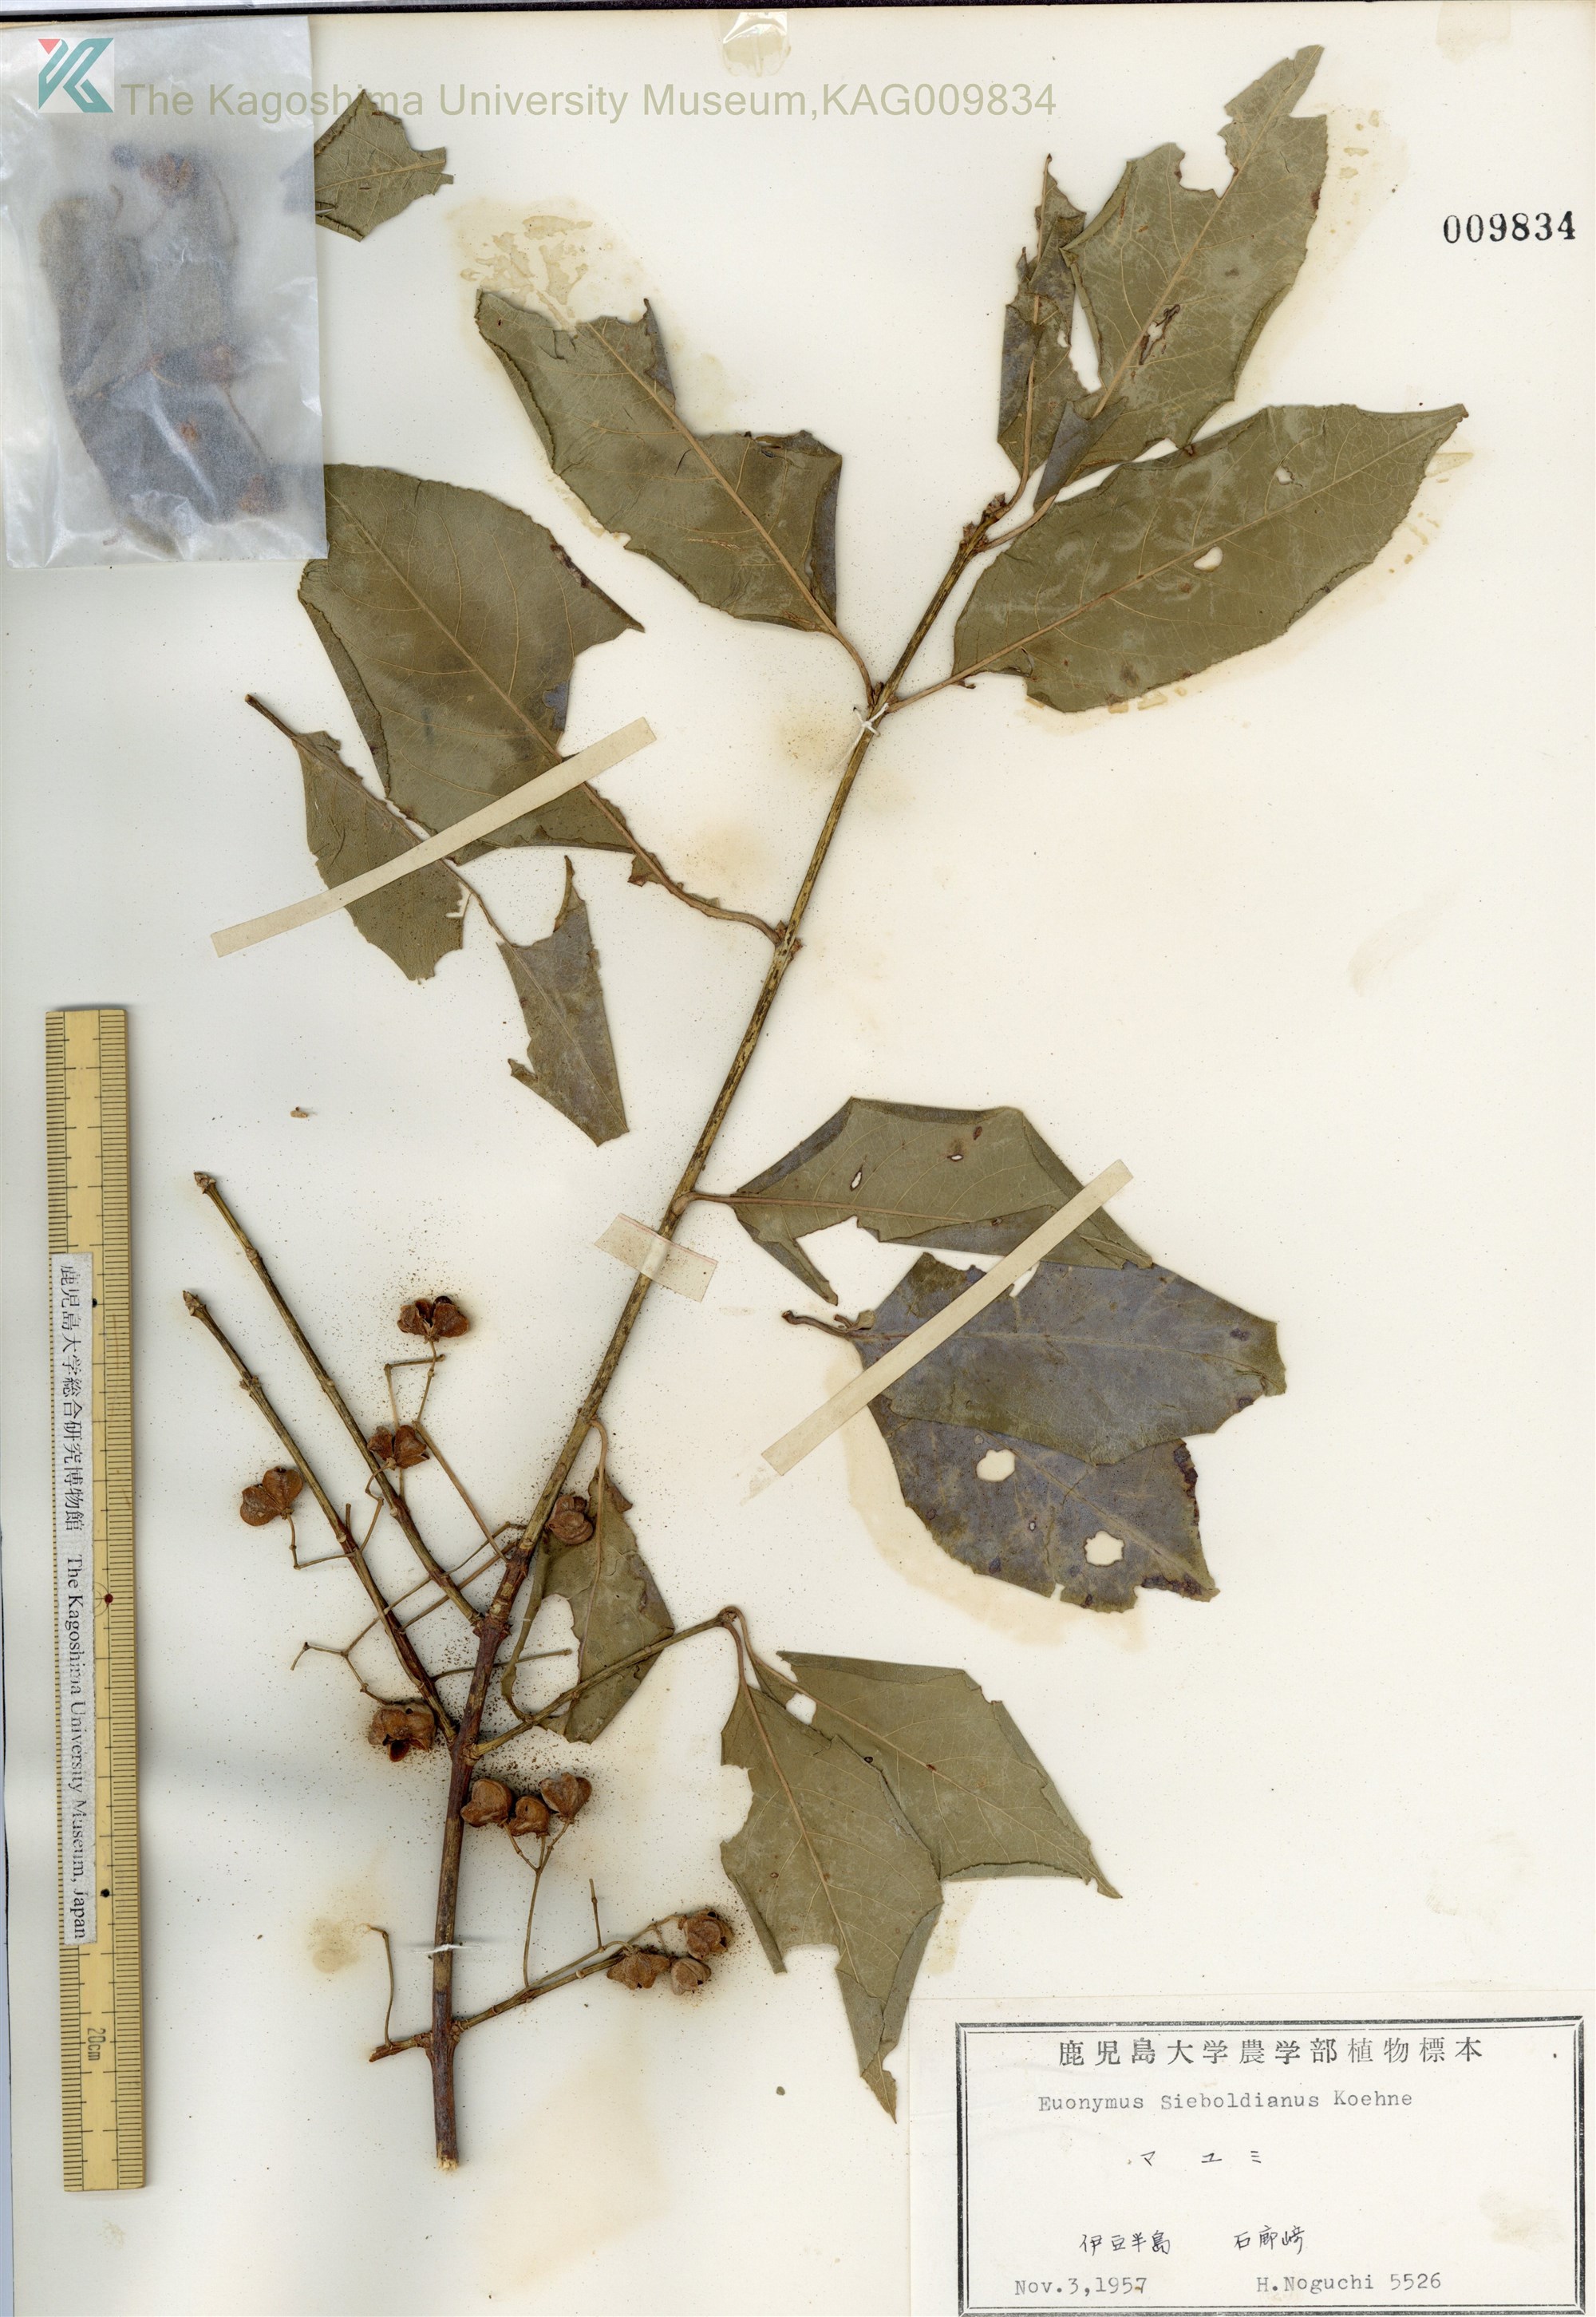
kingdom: Plantae
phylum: Tracheophyta
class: Magnoliopsida
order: Celastrales
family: Celastraceae
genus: Euonymus
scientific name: Euonymus hamiltonianus
